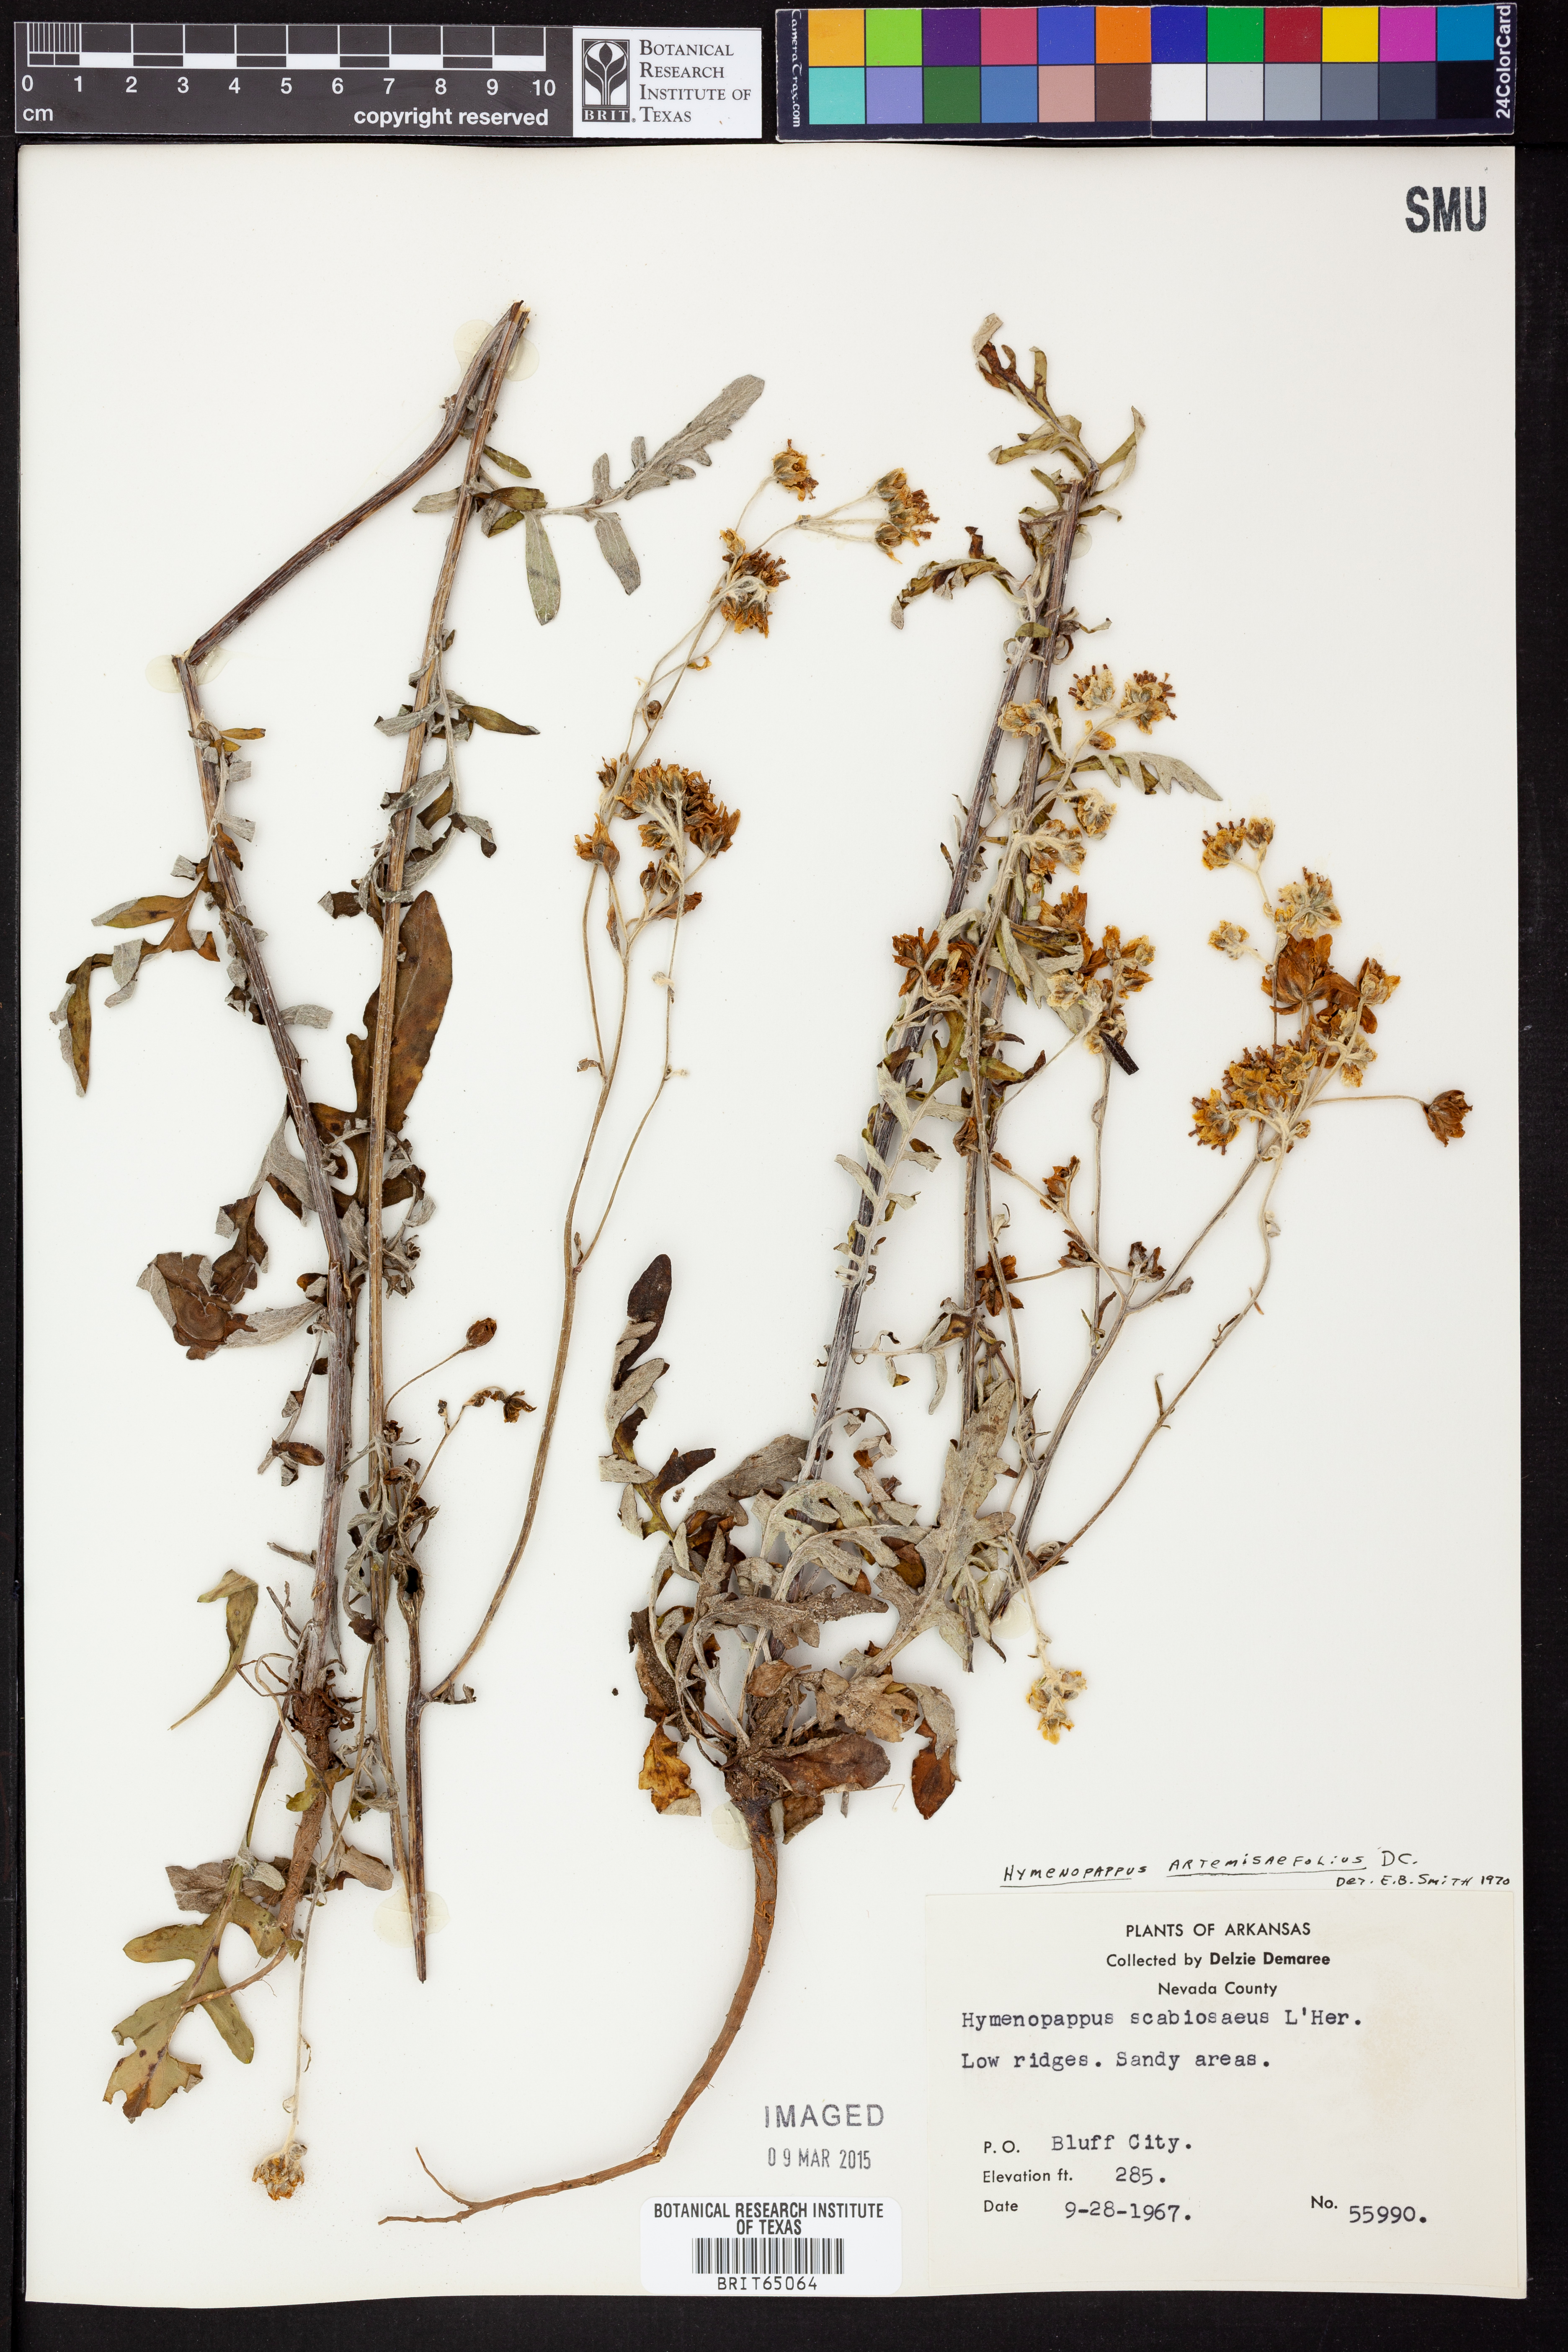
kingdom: Plantae
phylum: Tracheophyta
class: Magnoliopsida
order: Asterales
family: Asteraceae
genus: Hymenopappus
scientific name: Hymenopappus artemisiifolius
